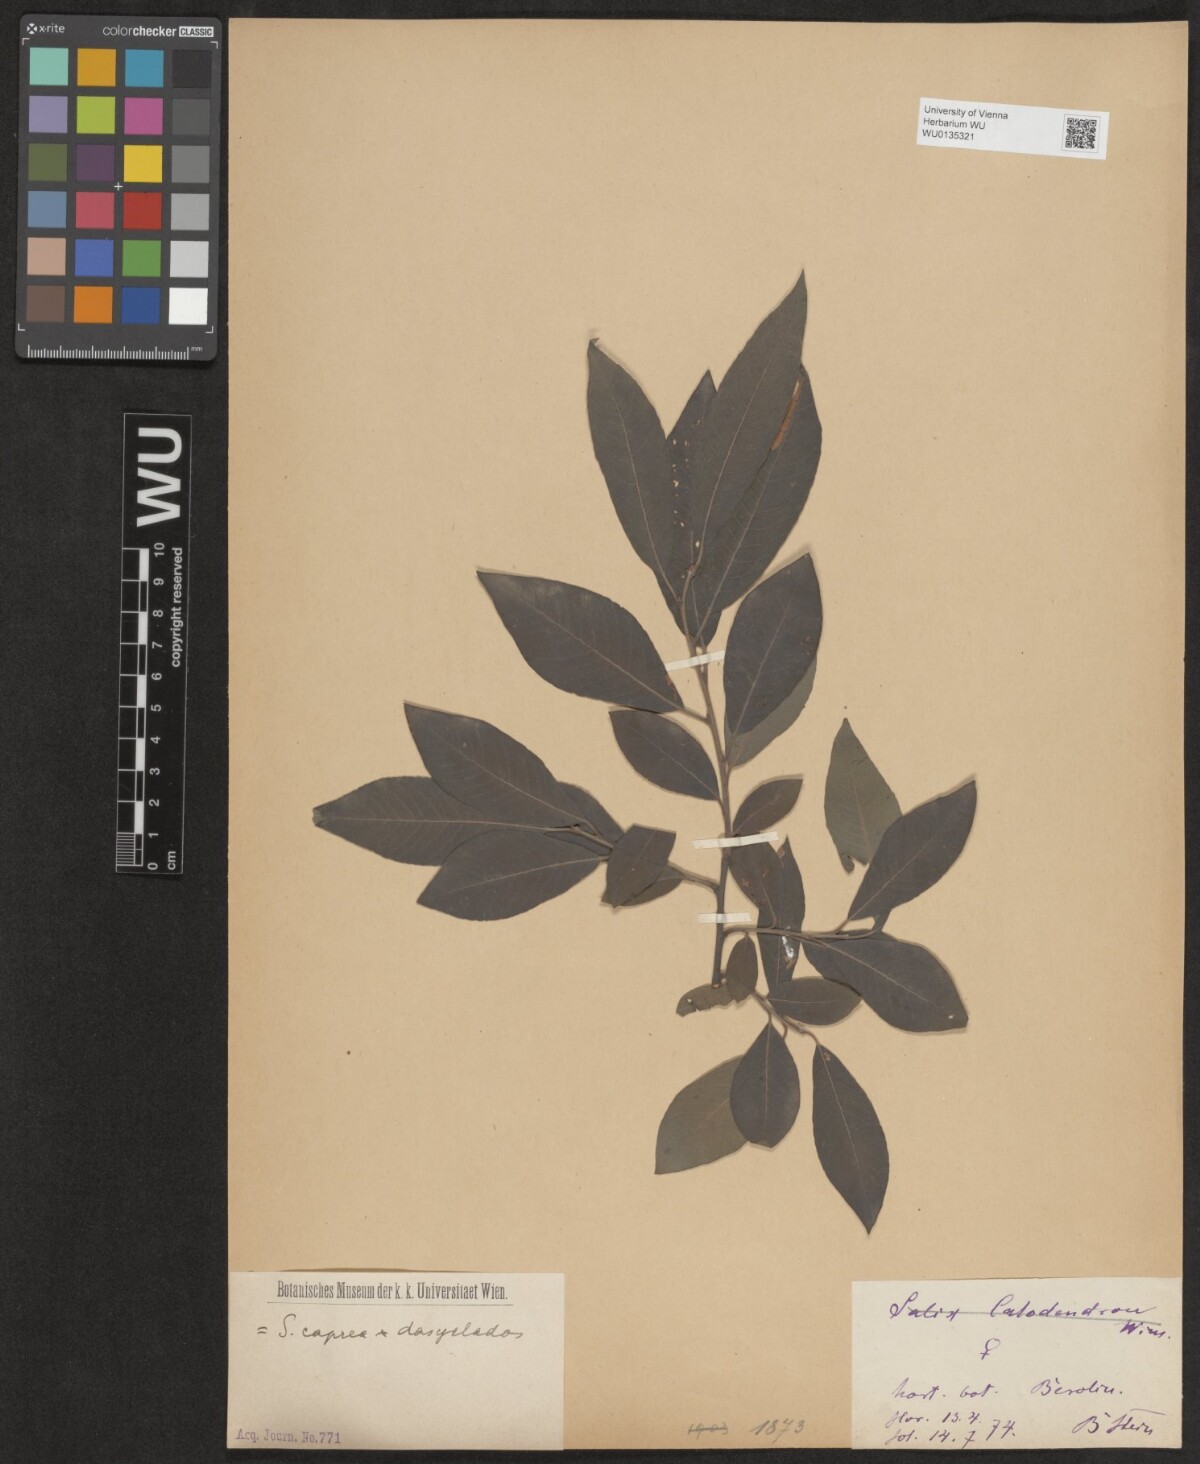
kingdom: Plantae
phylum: Tracheophyta
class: Magnoliopsida
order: Malpighiales
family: Salicaceae
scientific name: Salicaceae
